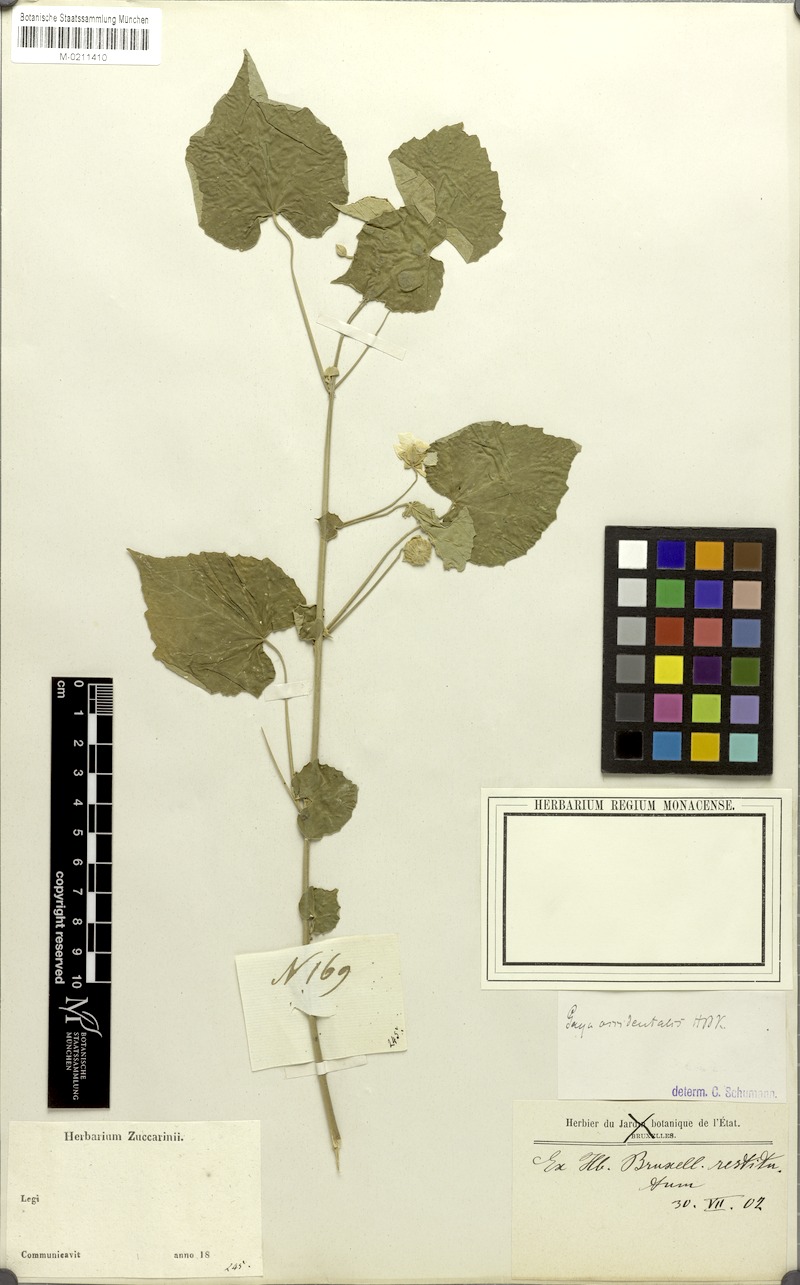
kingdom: Plantae
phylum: Tracheophyta
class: Magnoliopsida
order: Malvales
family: Malvaceae
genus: Gaya
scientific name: Gaya occidentalis
